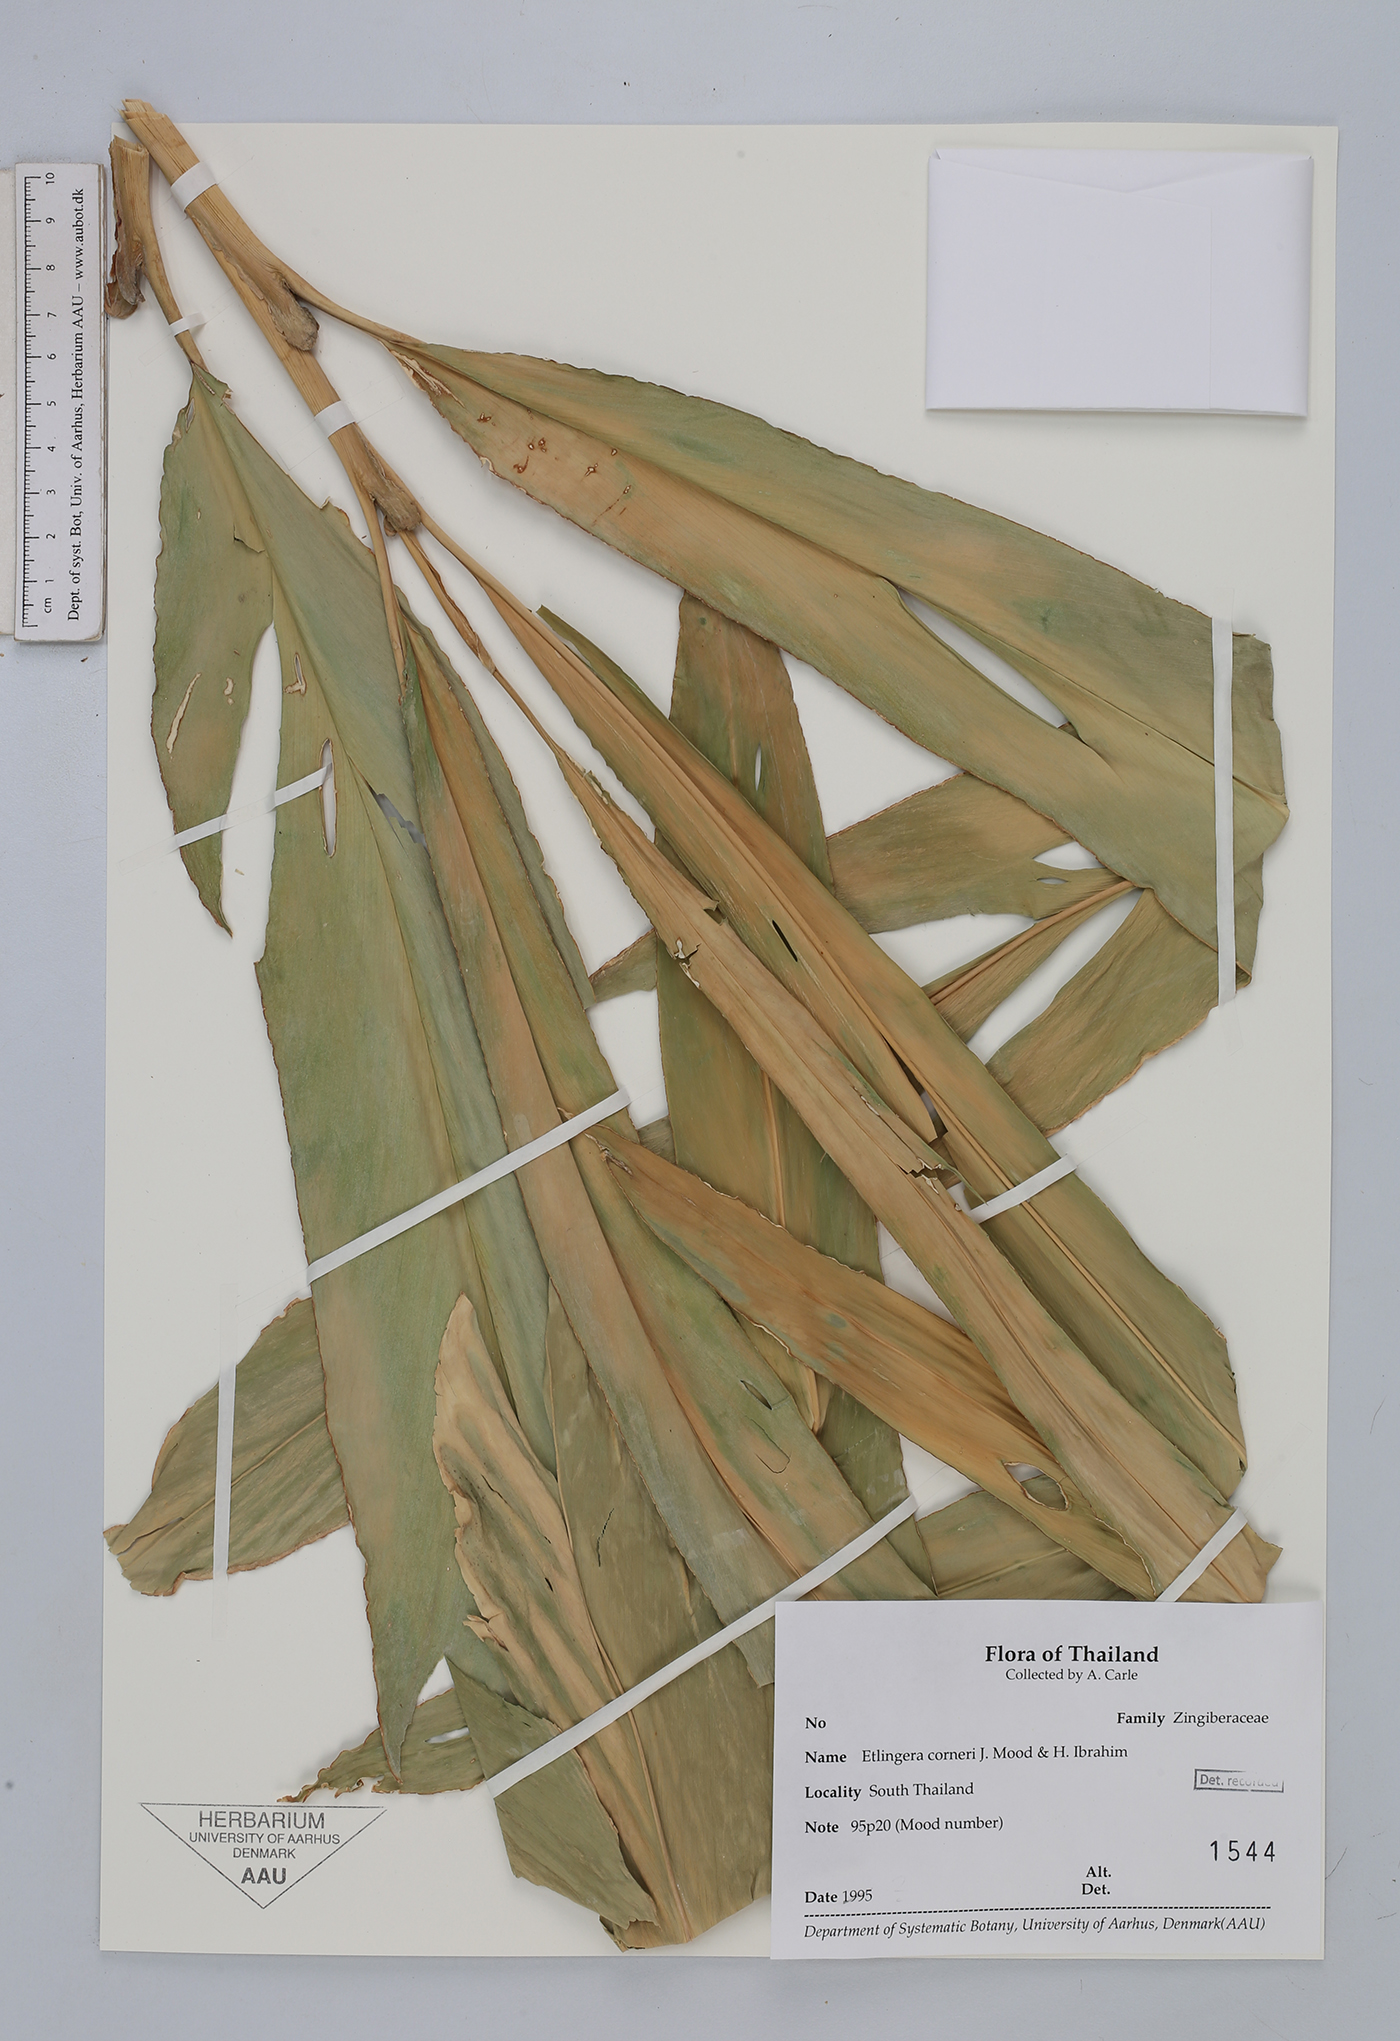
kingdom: Plantae
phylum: Tracheophyta
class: Liliopsida
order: Zingiberales
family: Zingiberaceae
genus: Etlingera
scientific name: Etlingera corneri
